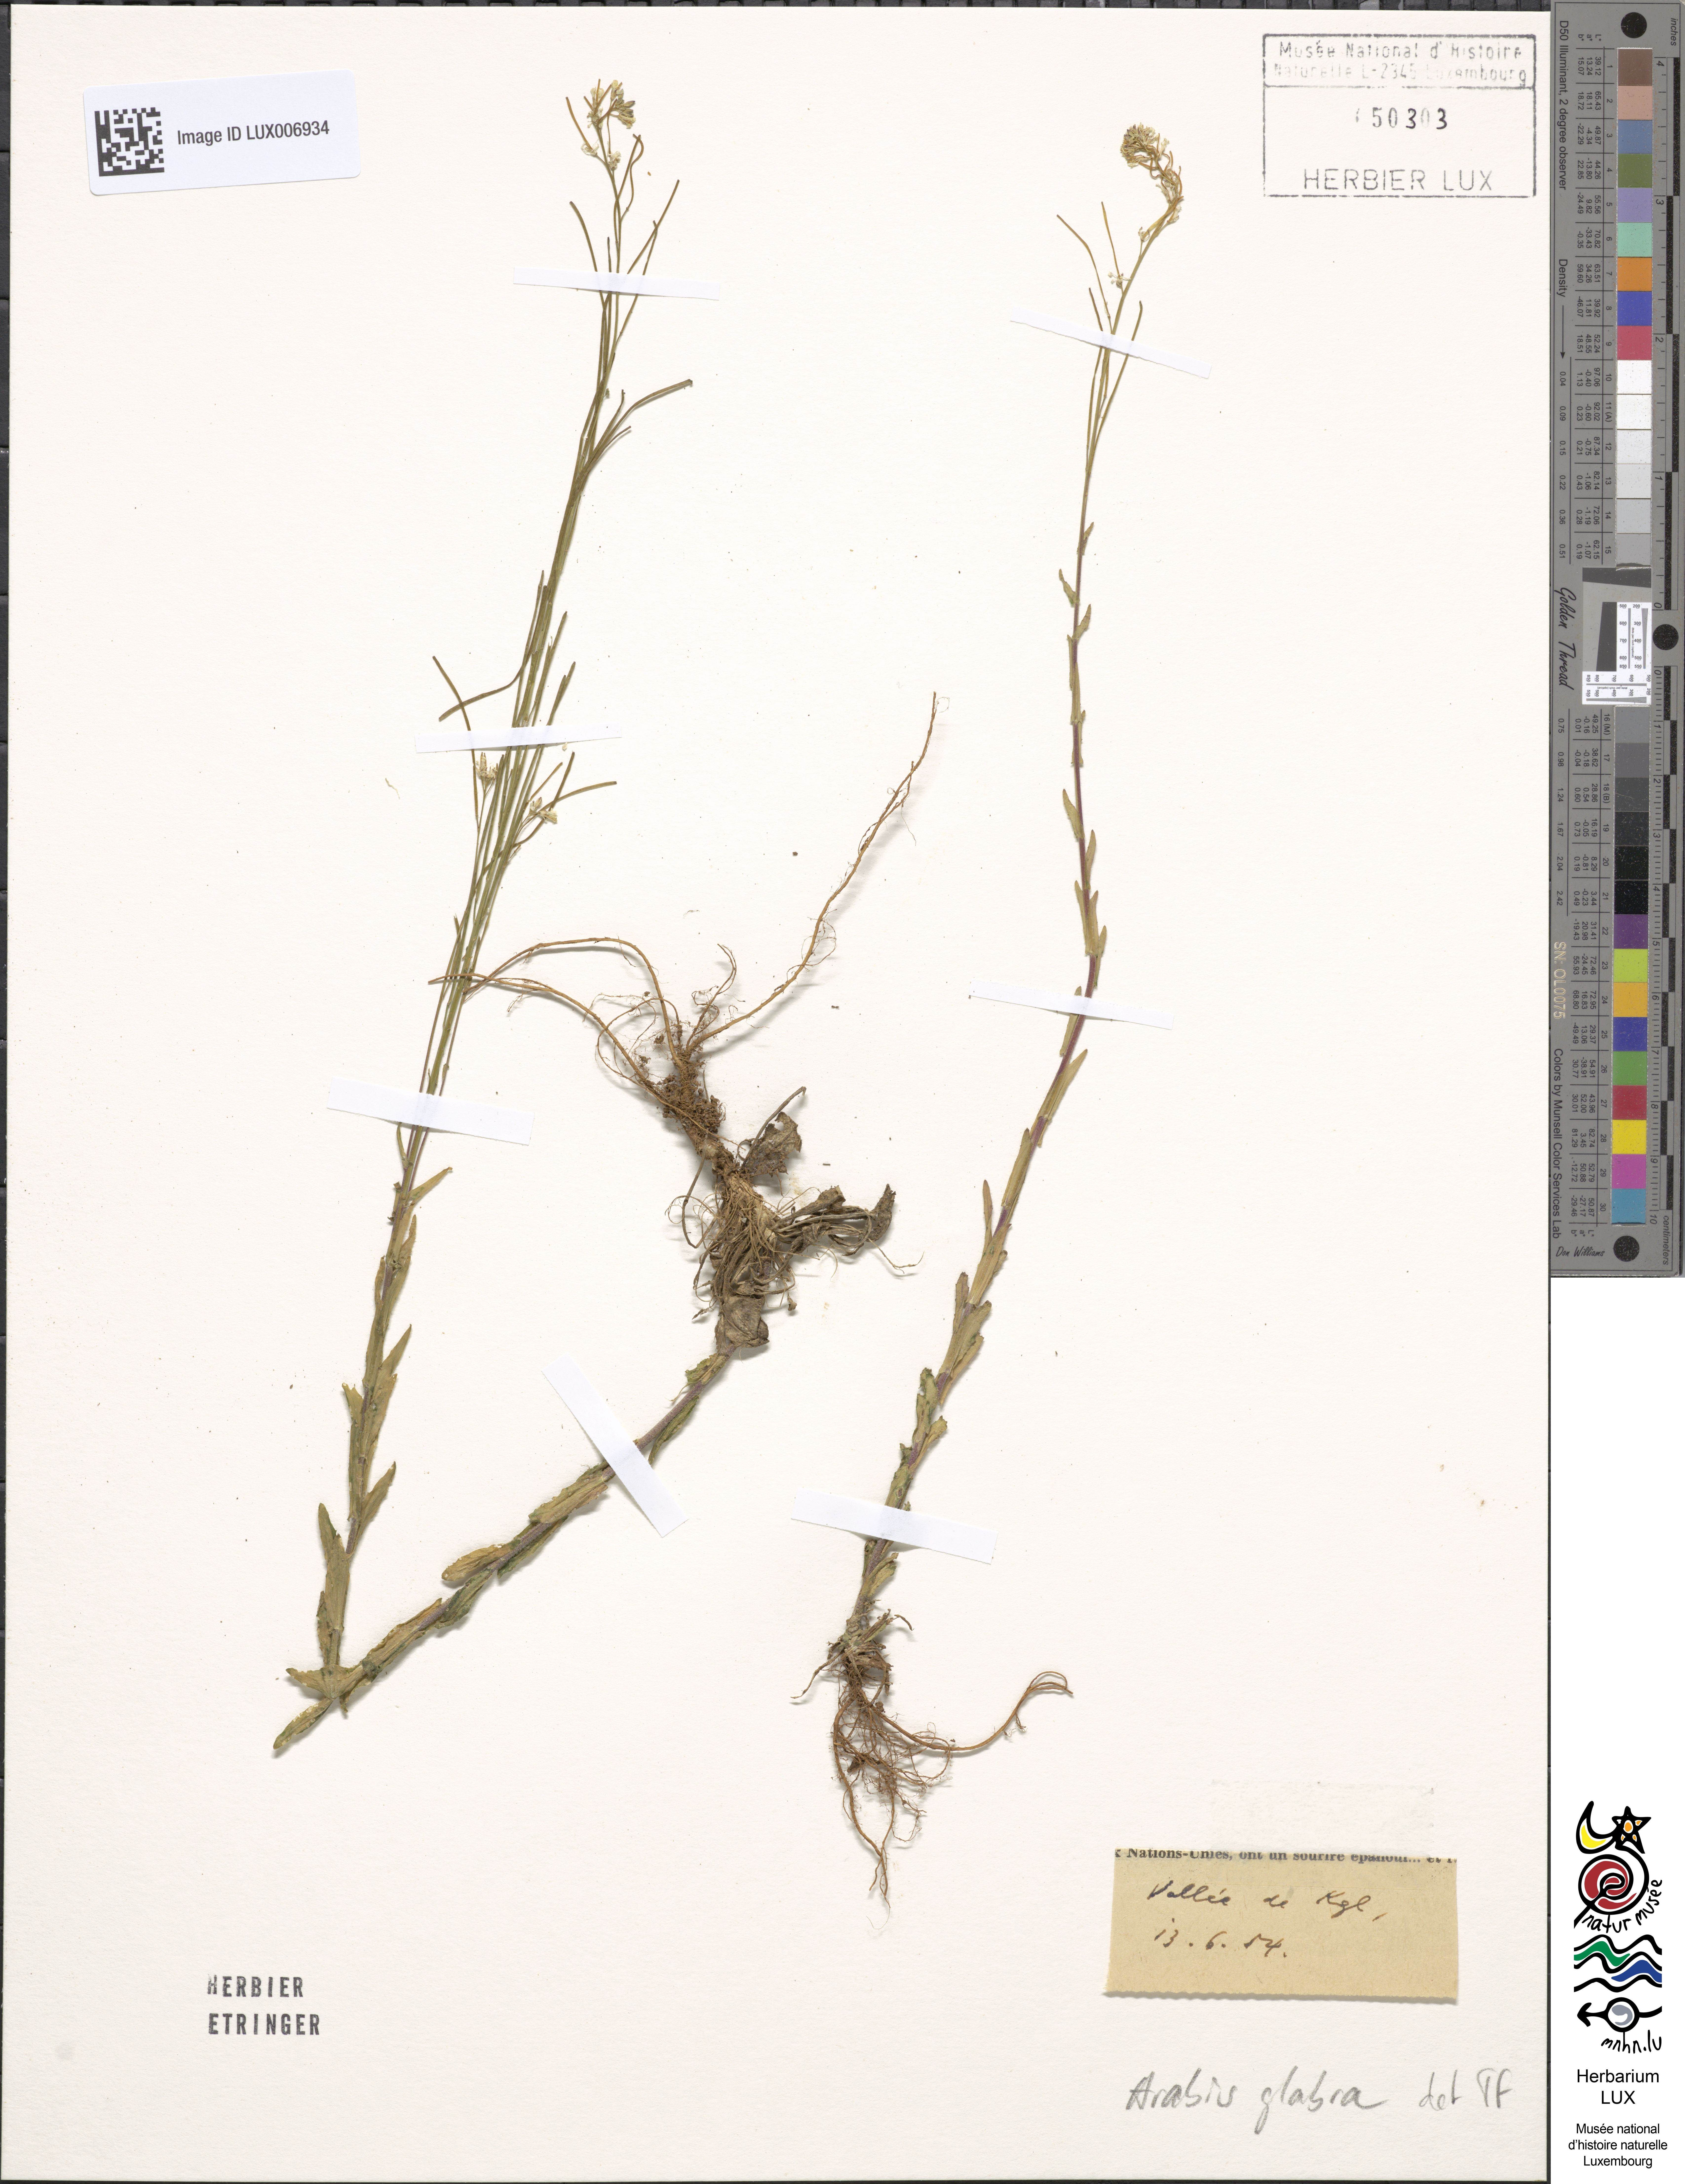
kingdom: Plantae
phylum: Tracheophyta
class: Magnoliopsida
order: Brassicales
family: Brassicaceae
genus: Turritis
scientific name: Turritis glabra
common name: Tower rockcress
